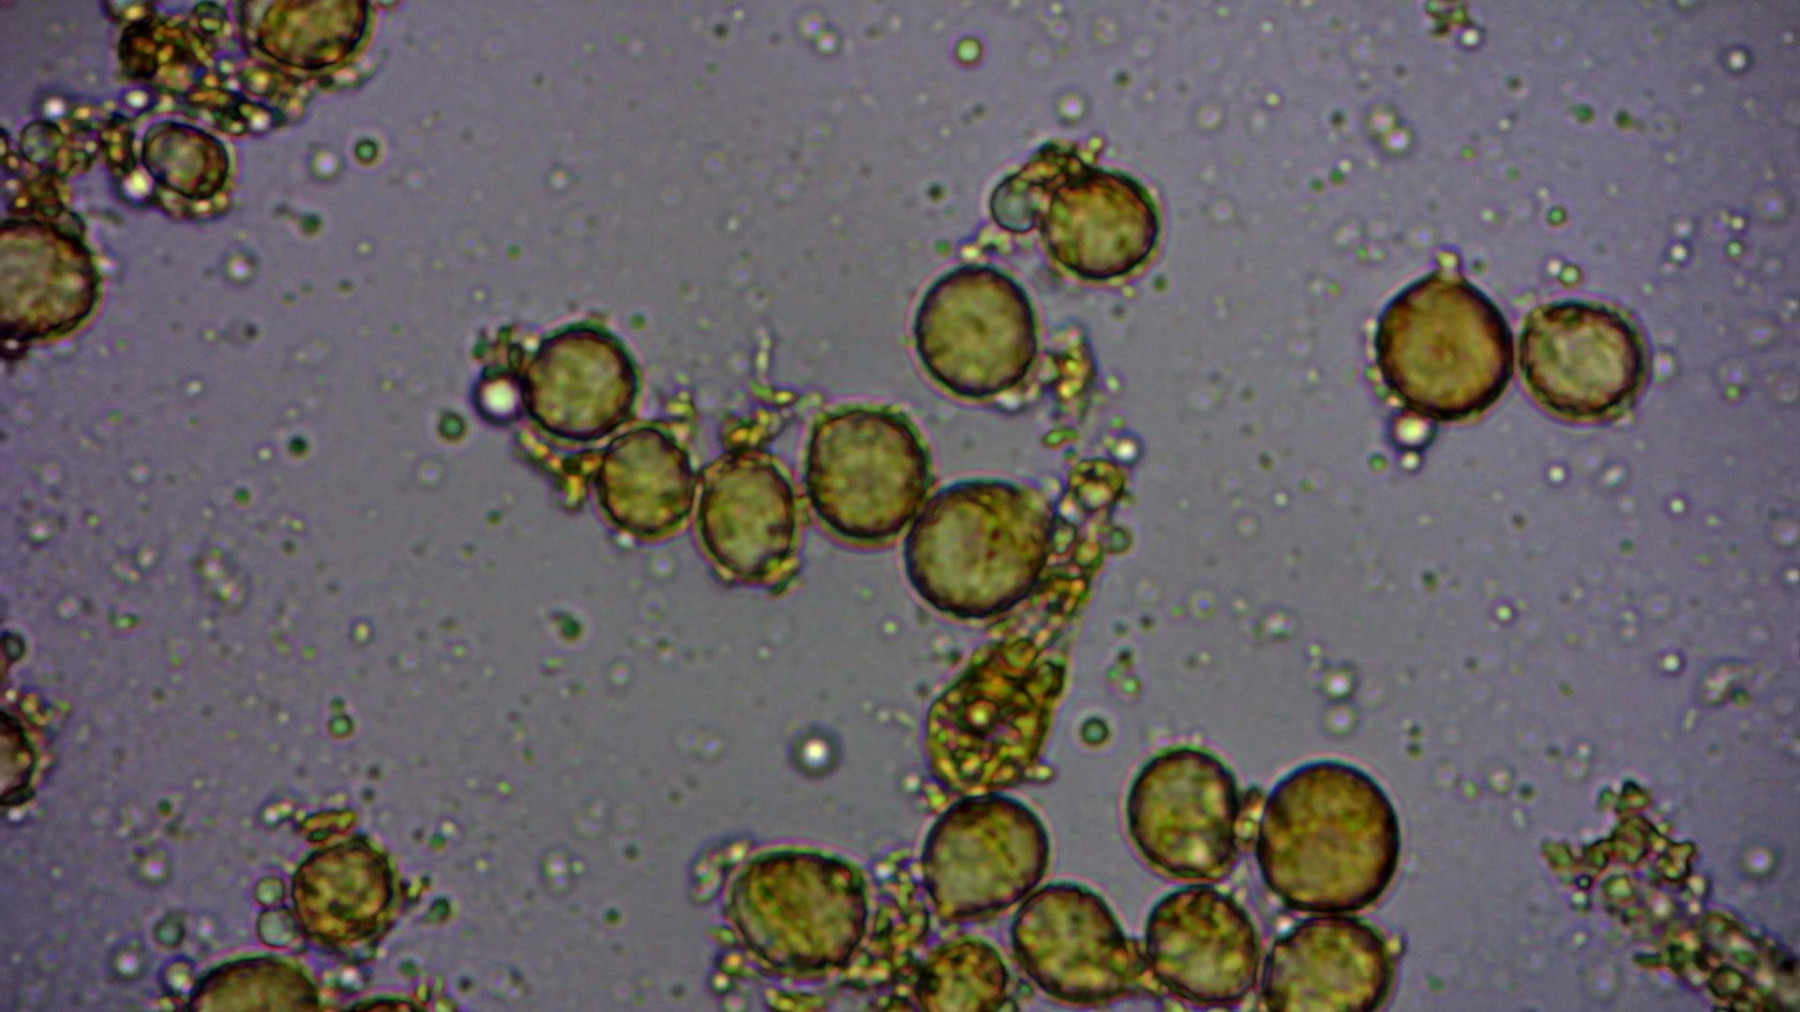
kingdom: Fungi
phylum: Basidiomycota
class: Agaricomycetes
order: Agaricales
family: Amanitaceae
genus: Amanita
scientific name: Amanita
